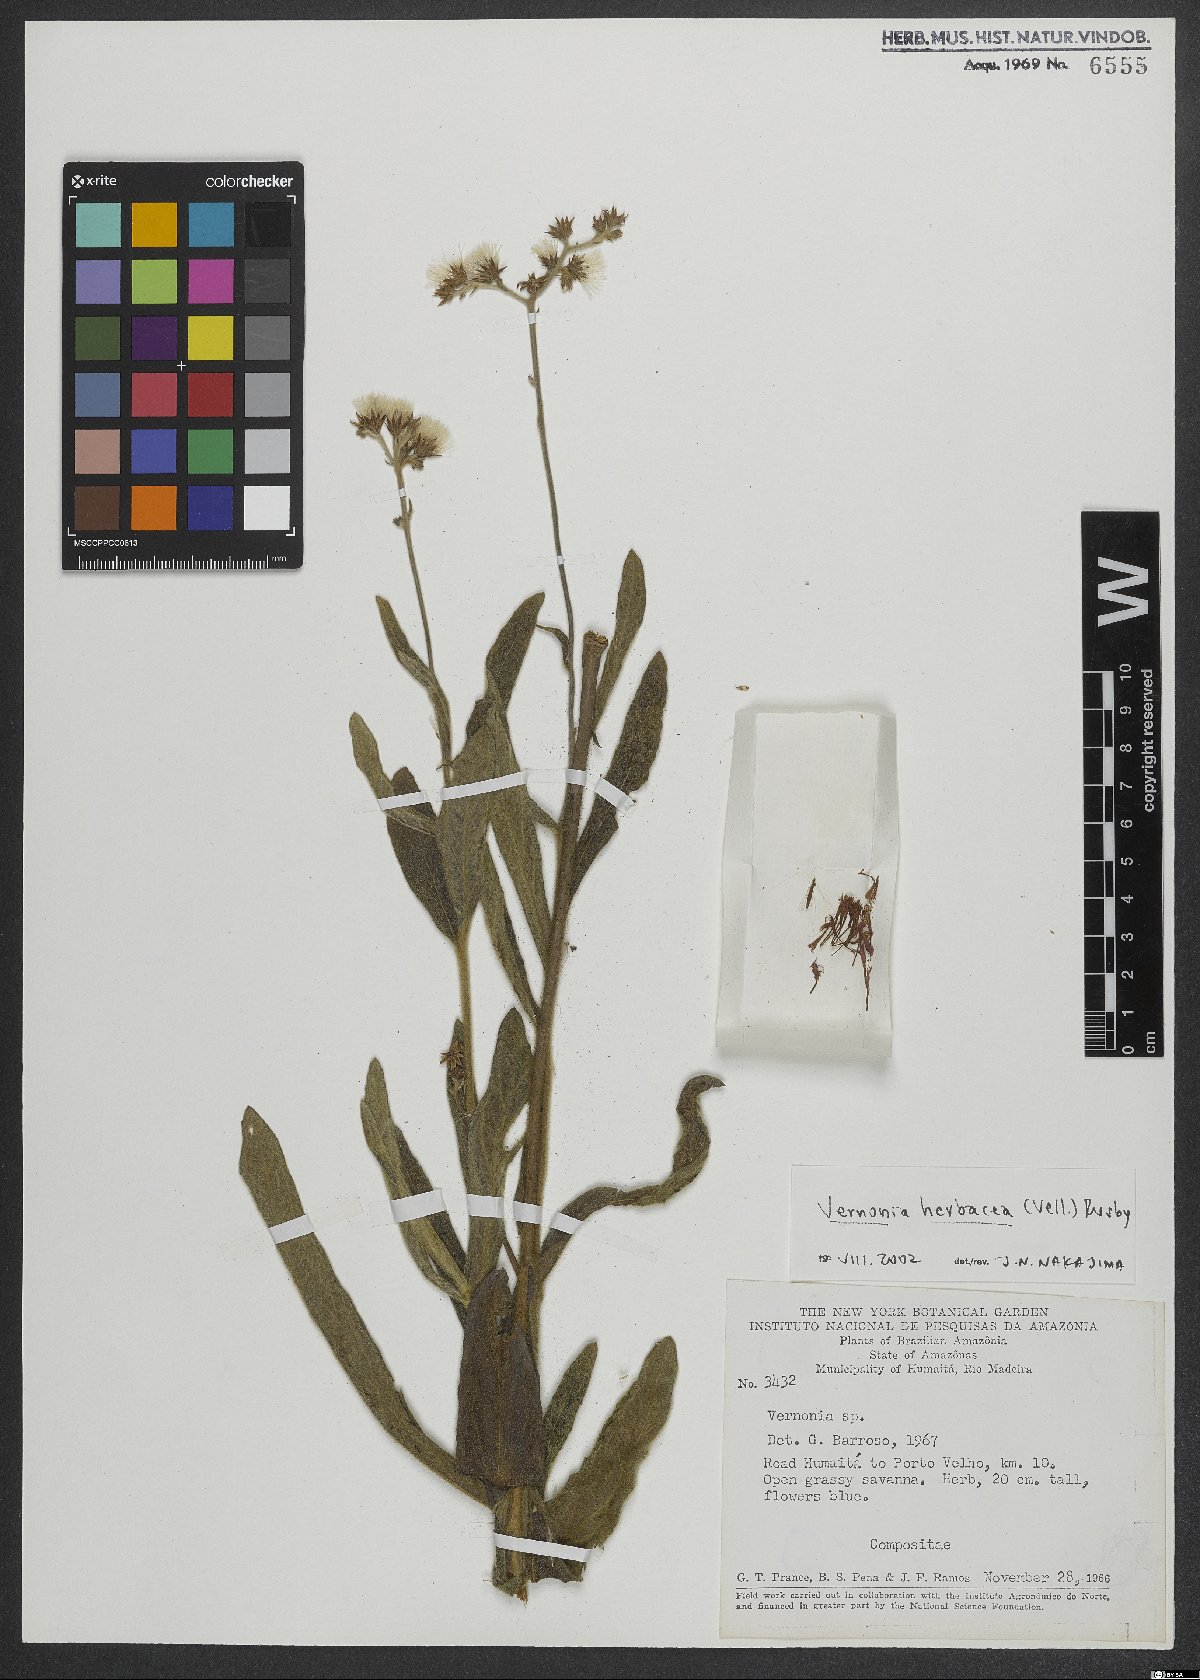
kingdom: Plantae
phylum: Tracheophyta
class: Magnoliopsida
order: Asterales
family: Asteraceae
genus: Chrysolaena
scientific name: Chrysolaena obovata
